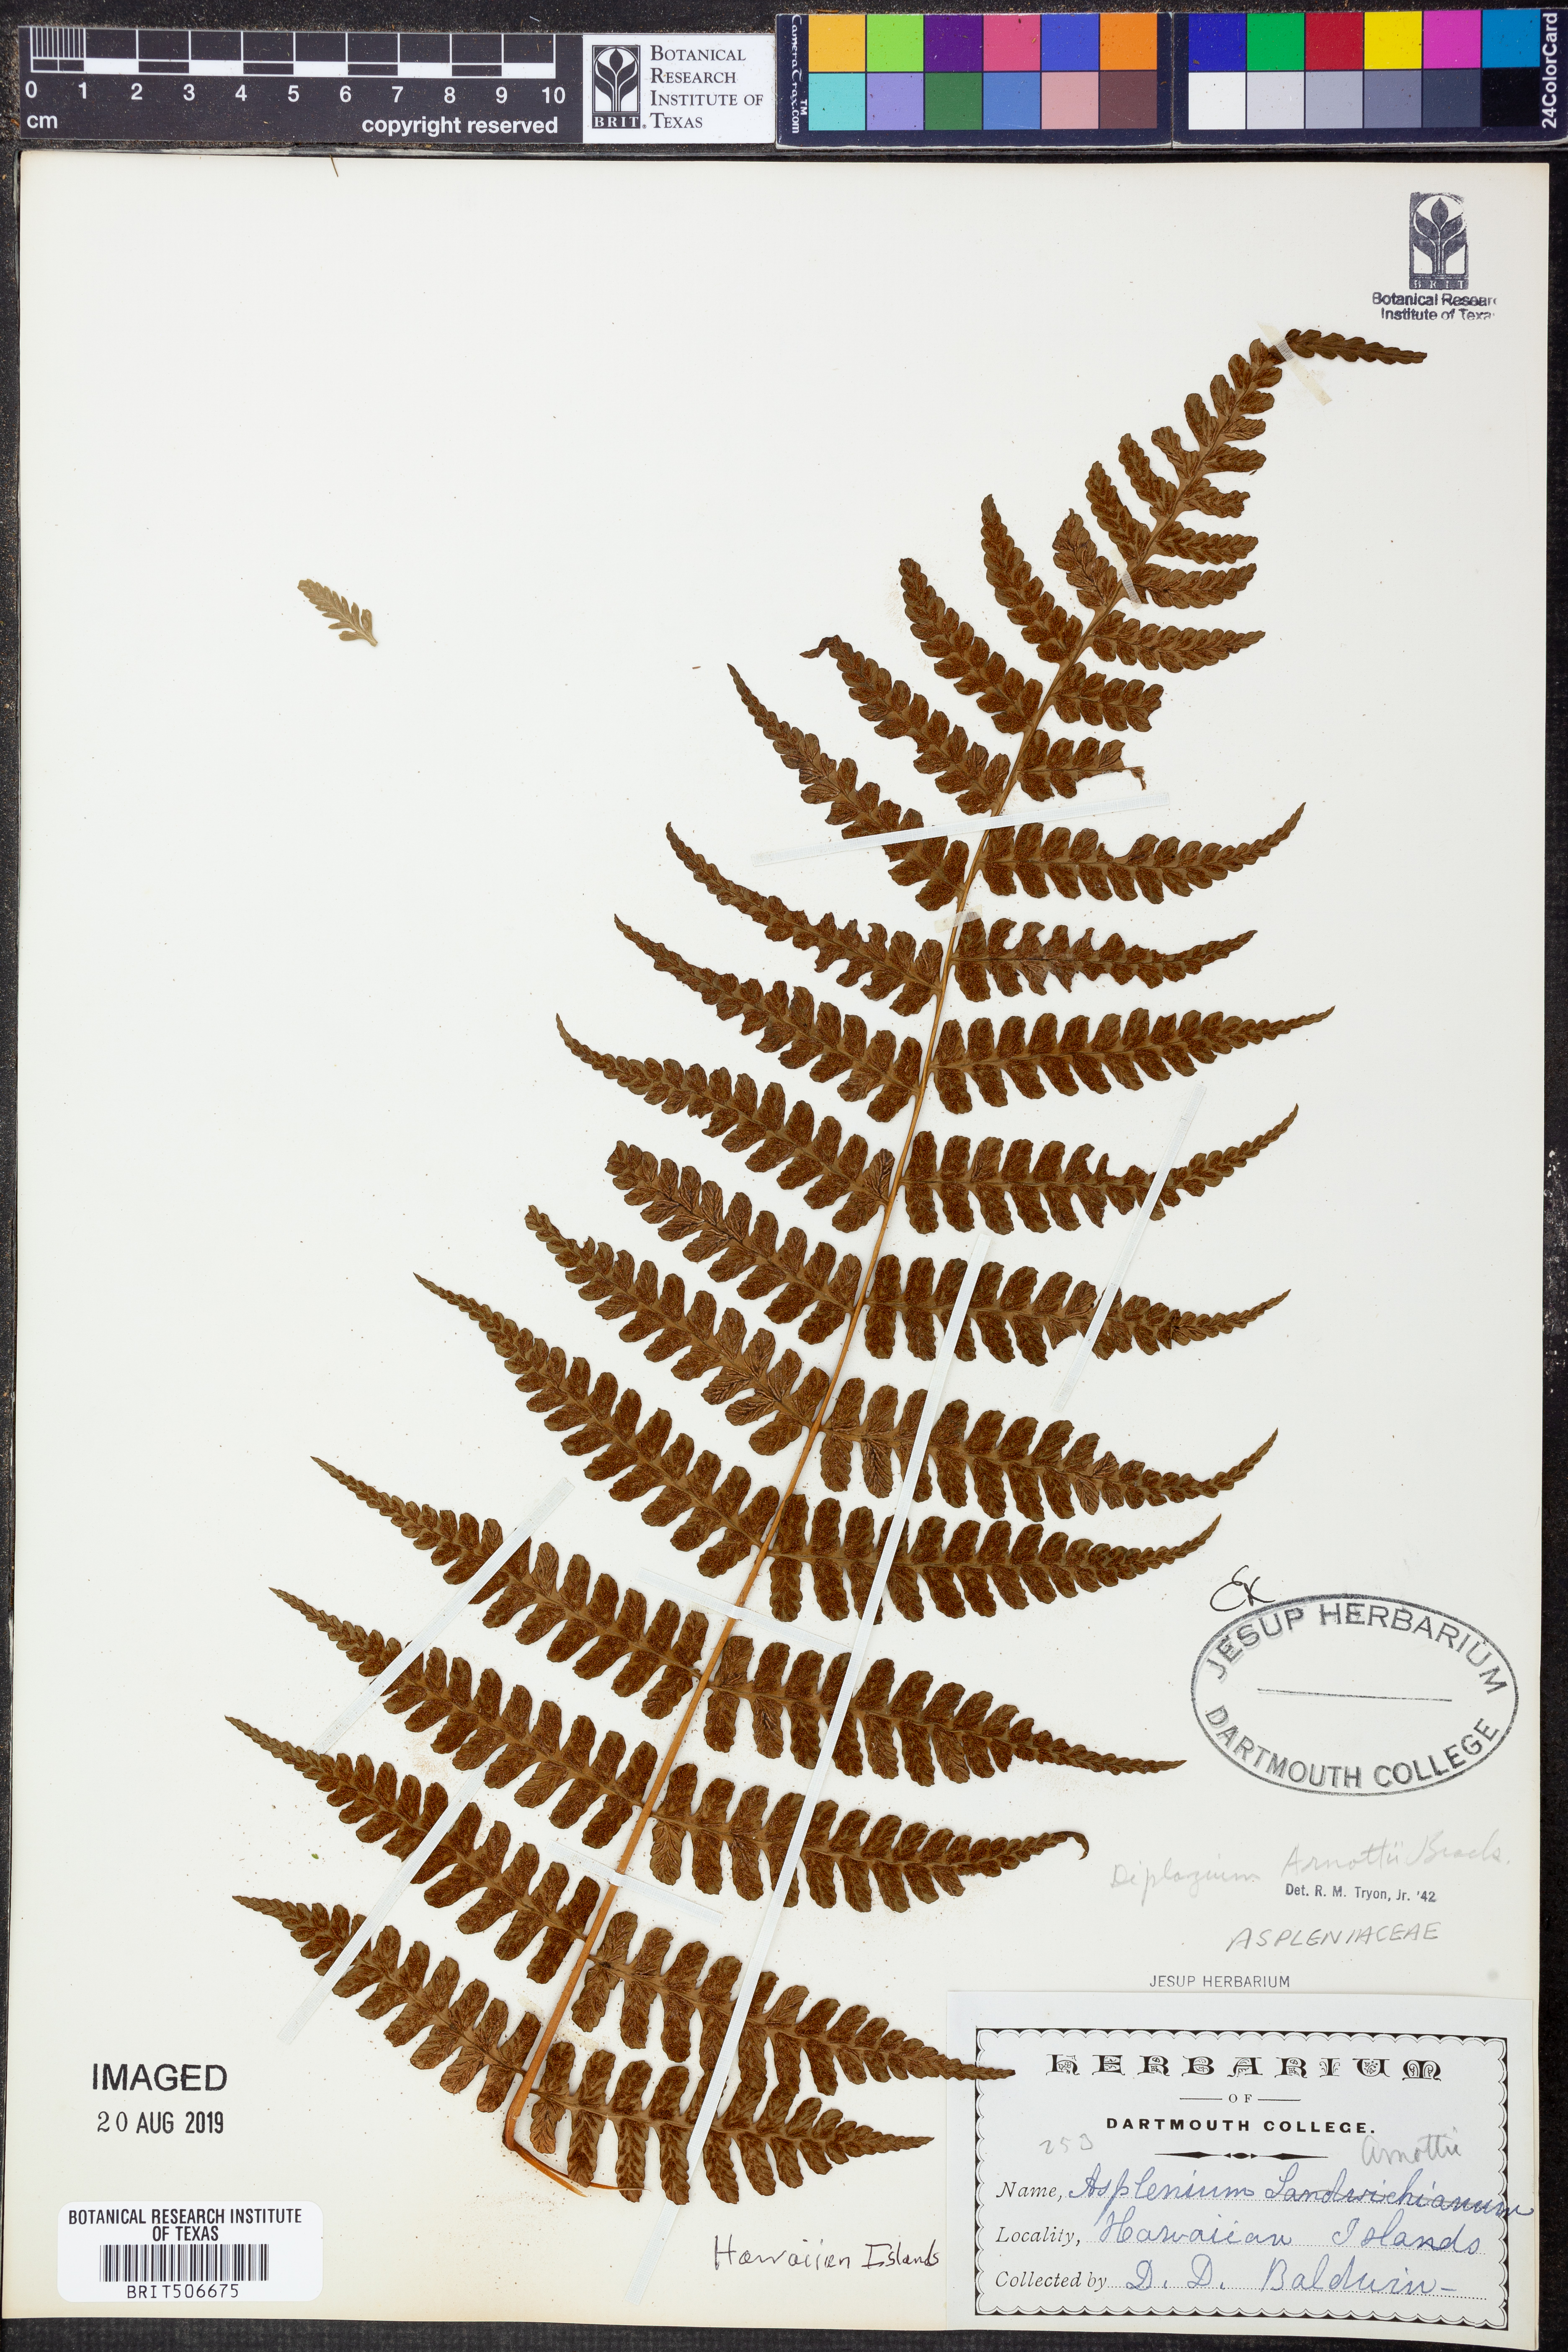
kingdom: Plantae
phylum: Tracheophyta
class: Polypodiopsida
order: Polypodiales
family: Athyriaceae
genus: Diplazium
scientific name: Diplazium arnottii
